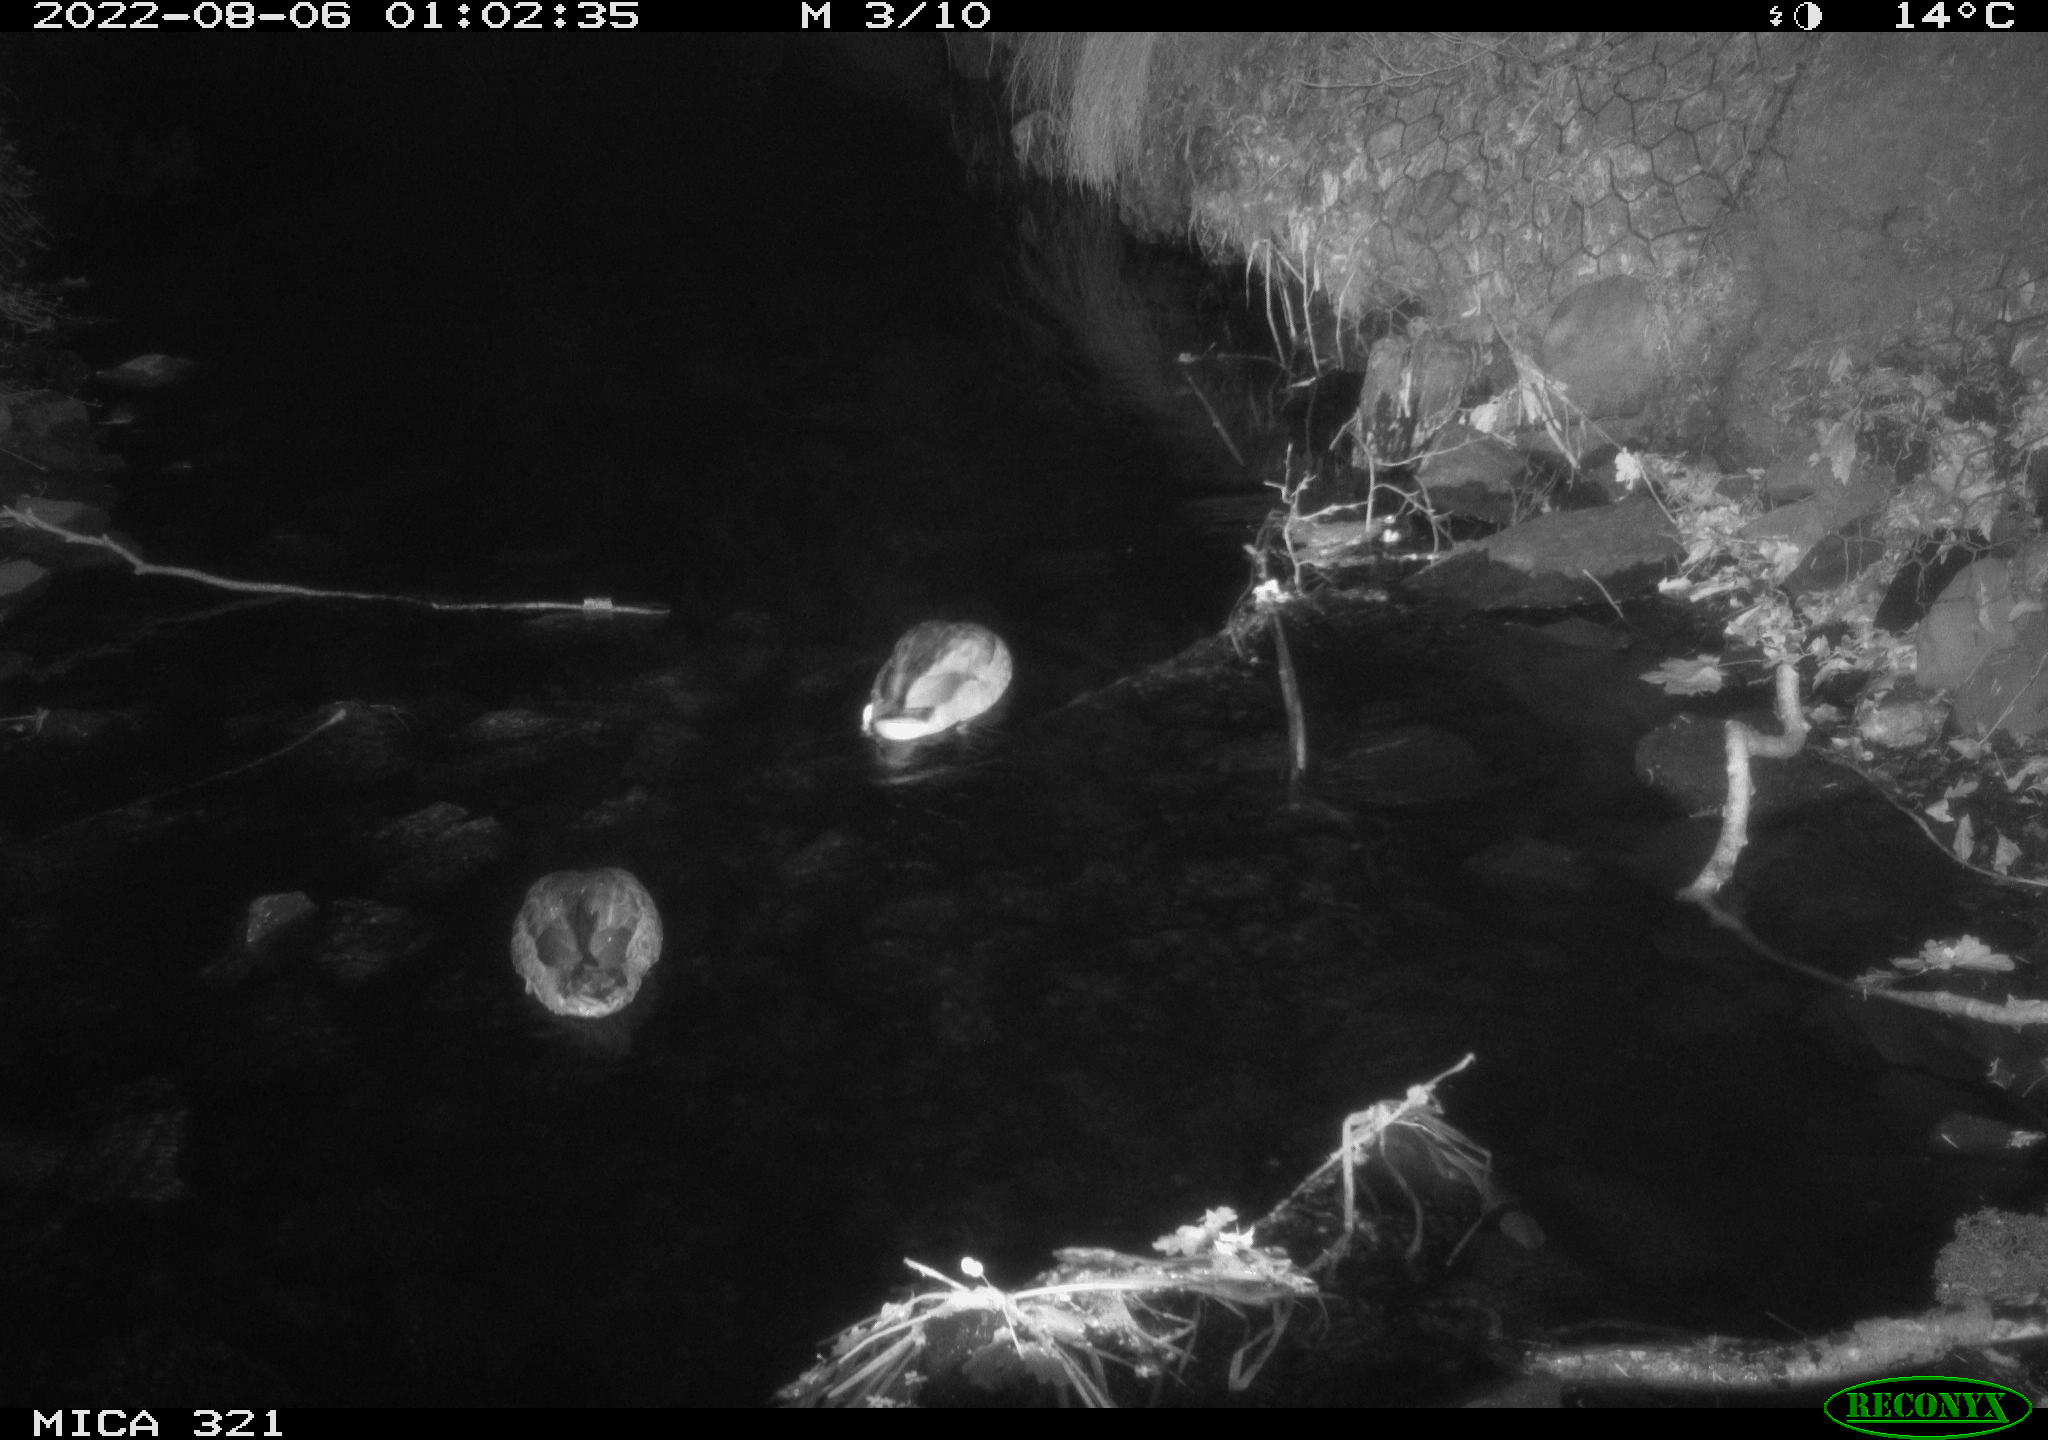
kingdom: Animalia
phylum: Chordata
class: Aves
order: Anseriformes
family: Anatidae
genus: Anas
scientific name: Anas platyrhynchos
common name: Mallard
